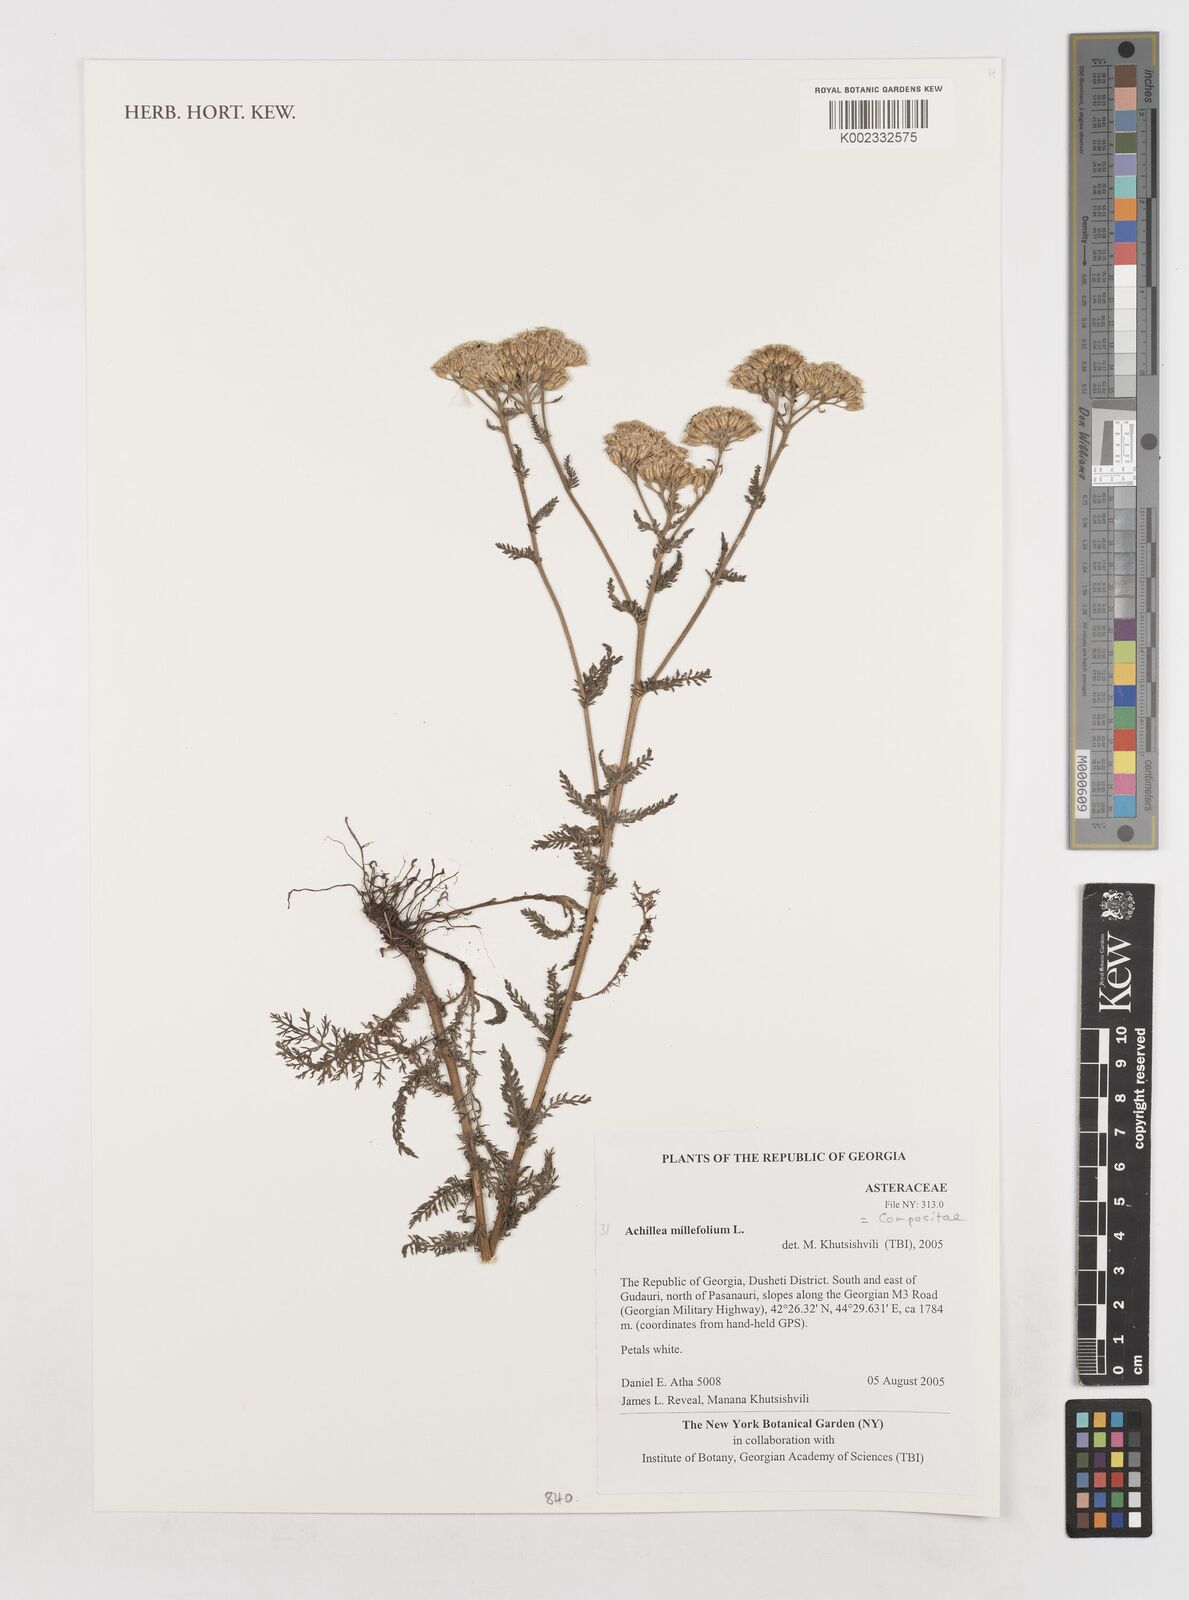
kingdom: Plantae
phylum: Tracheophyta
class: Magnoliopsida
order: Asterales
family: Asteraceae
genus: Achillea
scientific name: Achillea millefolium
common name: Yarrow
